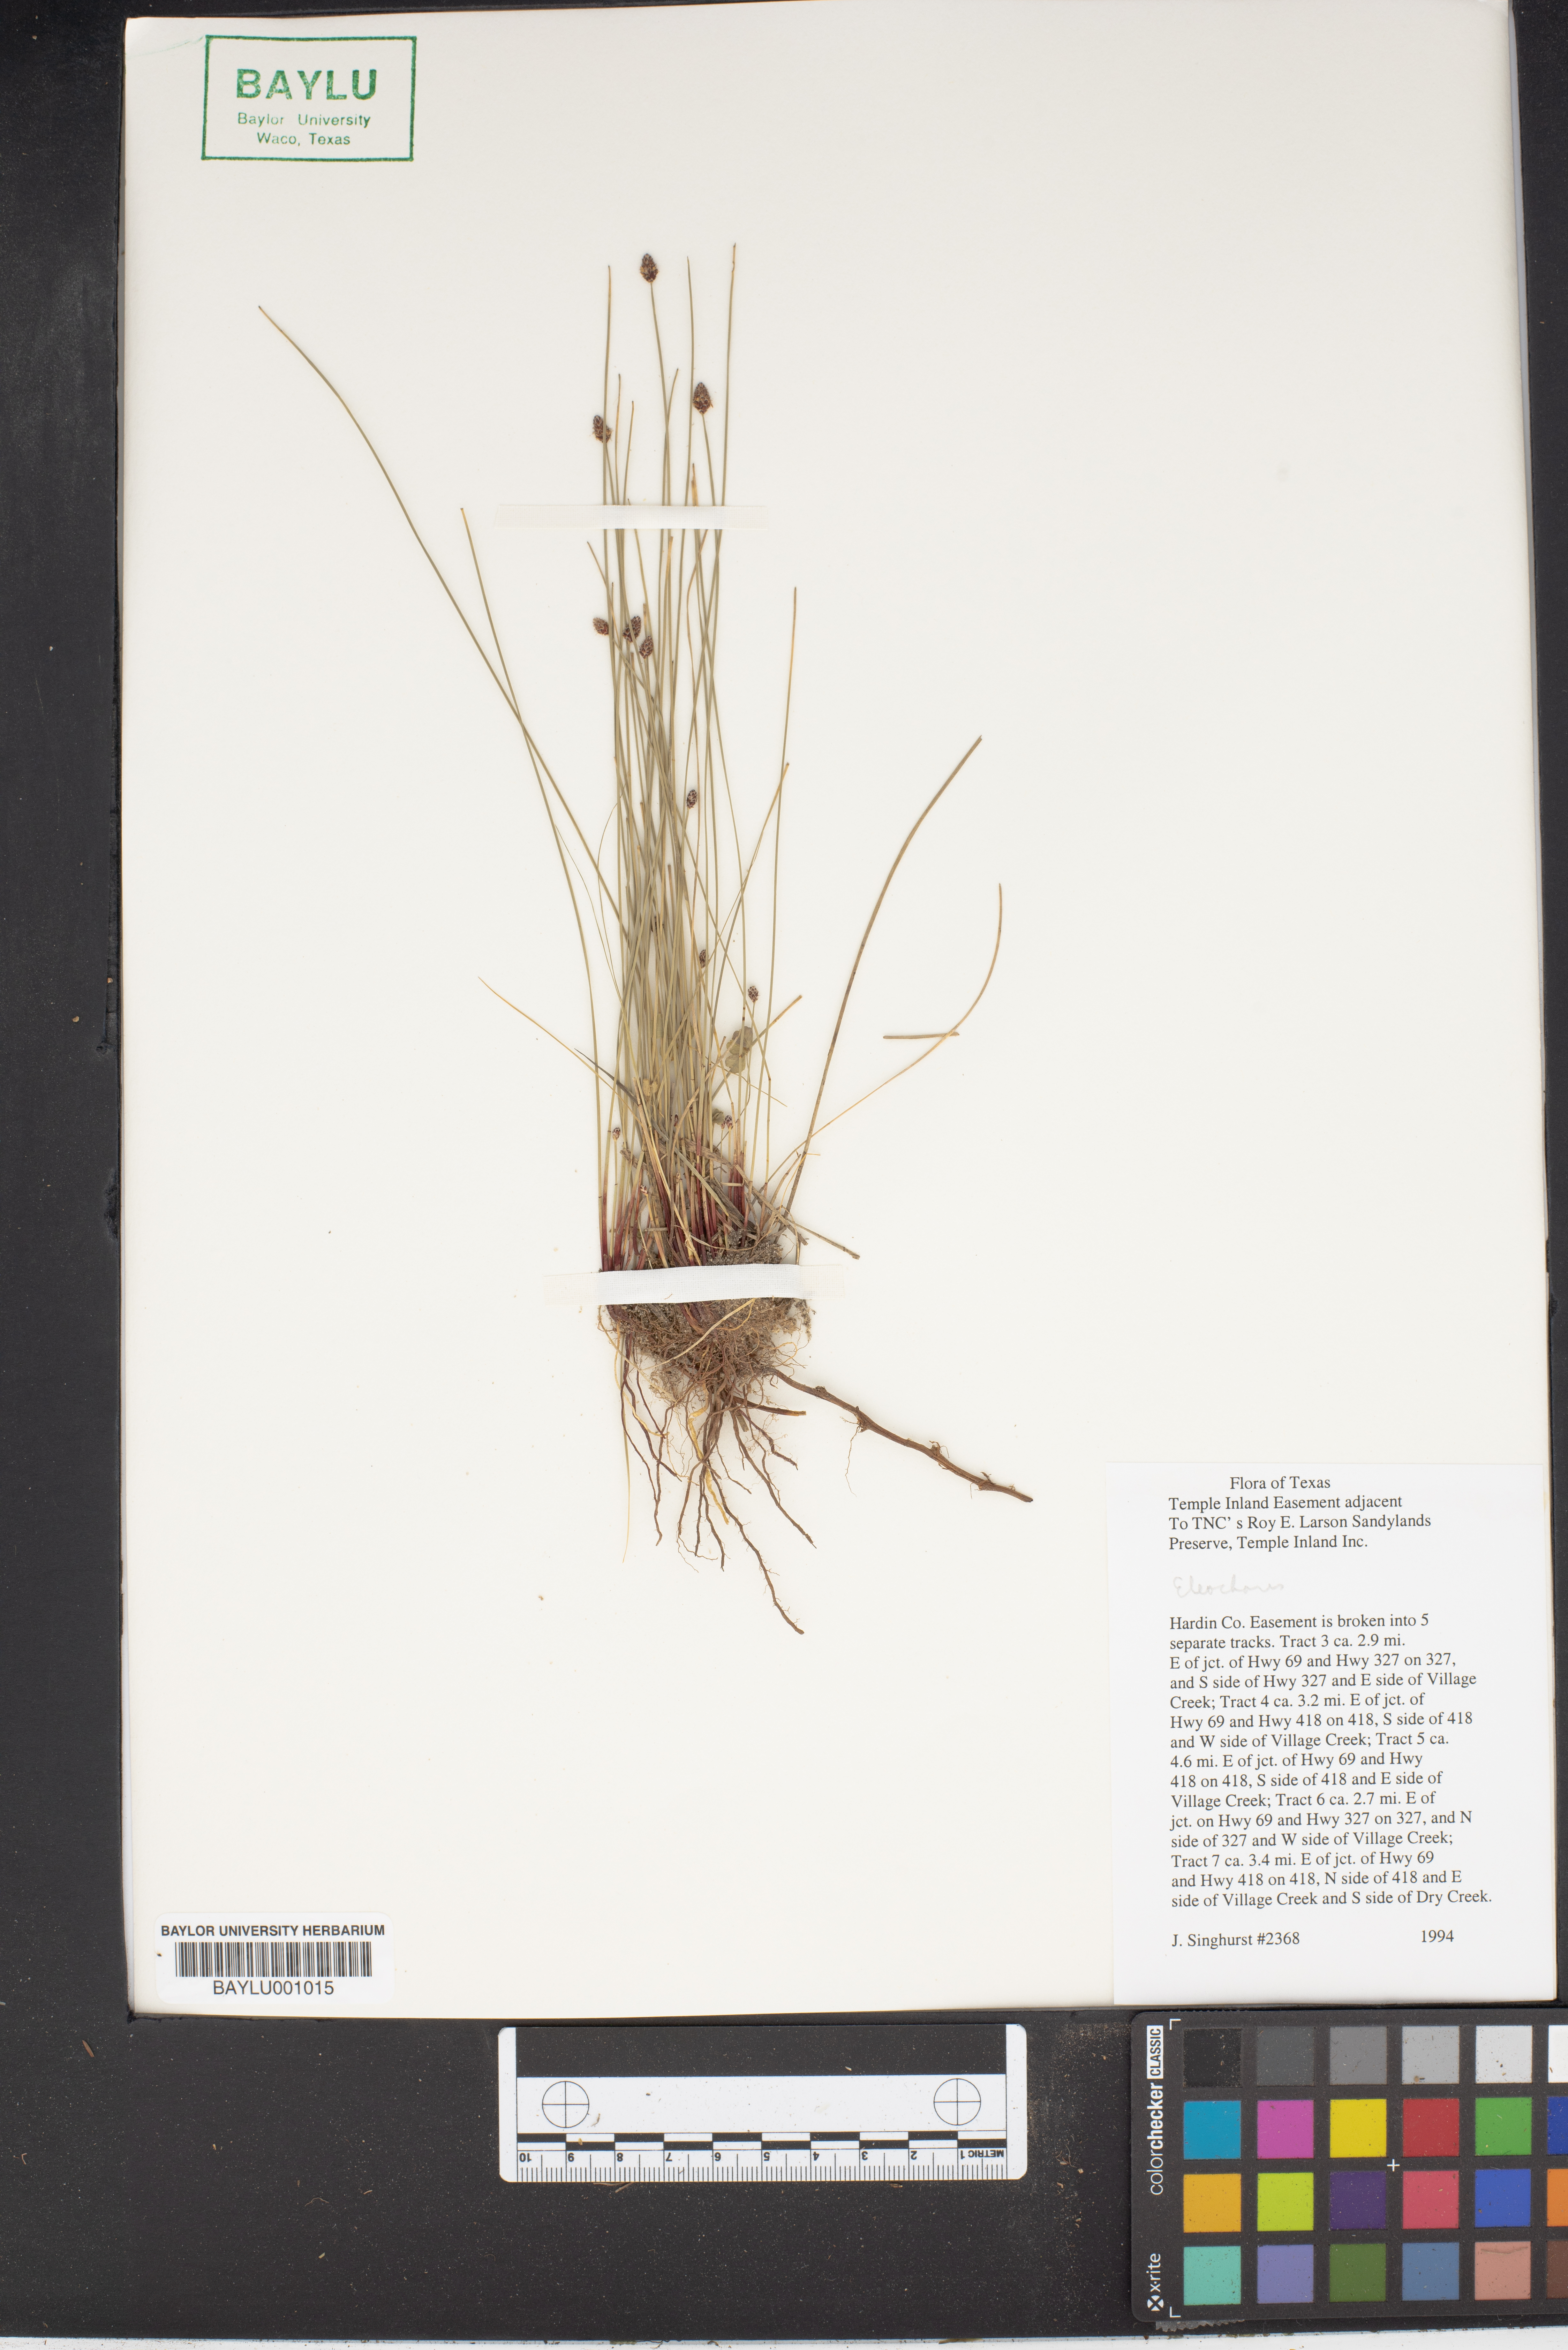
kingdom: Plantae
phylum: Tracheophyta
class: Liliopsida
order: Poales
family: Cyperaceae
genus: Eleocharis
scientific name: Eleocharis
